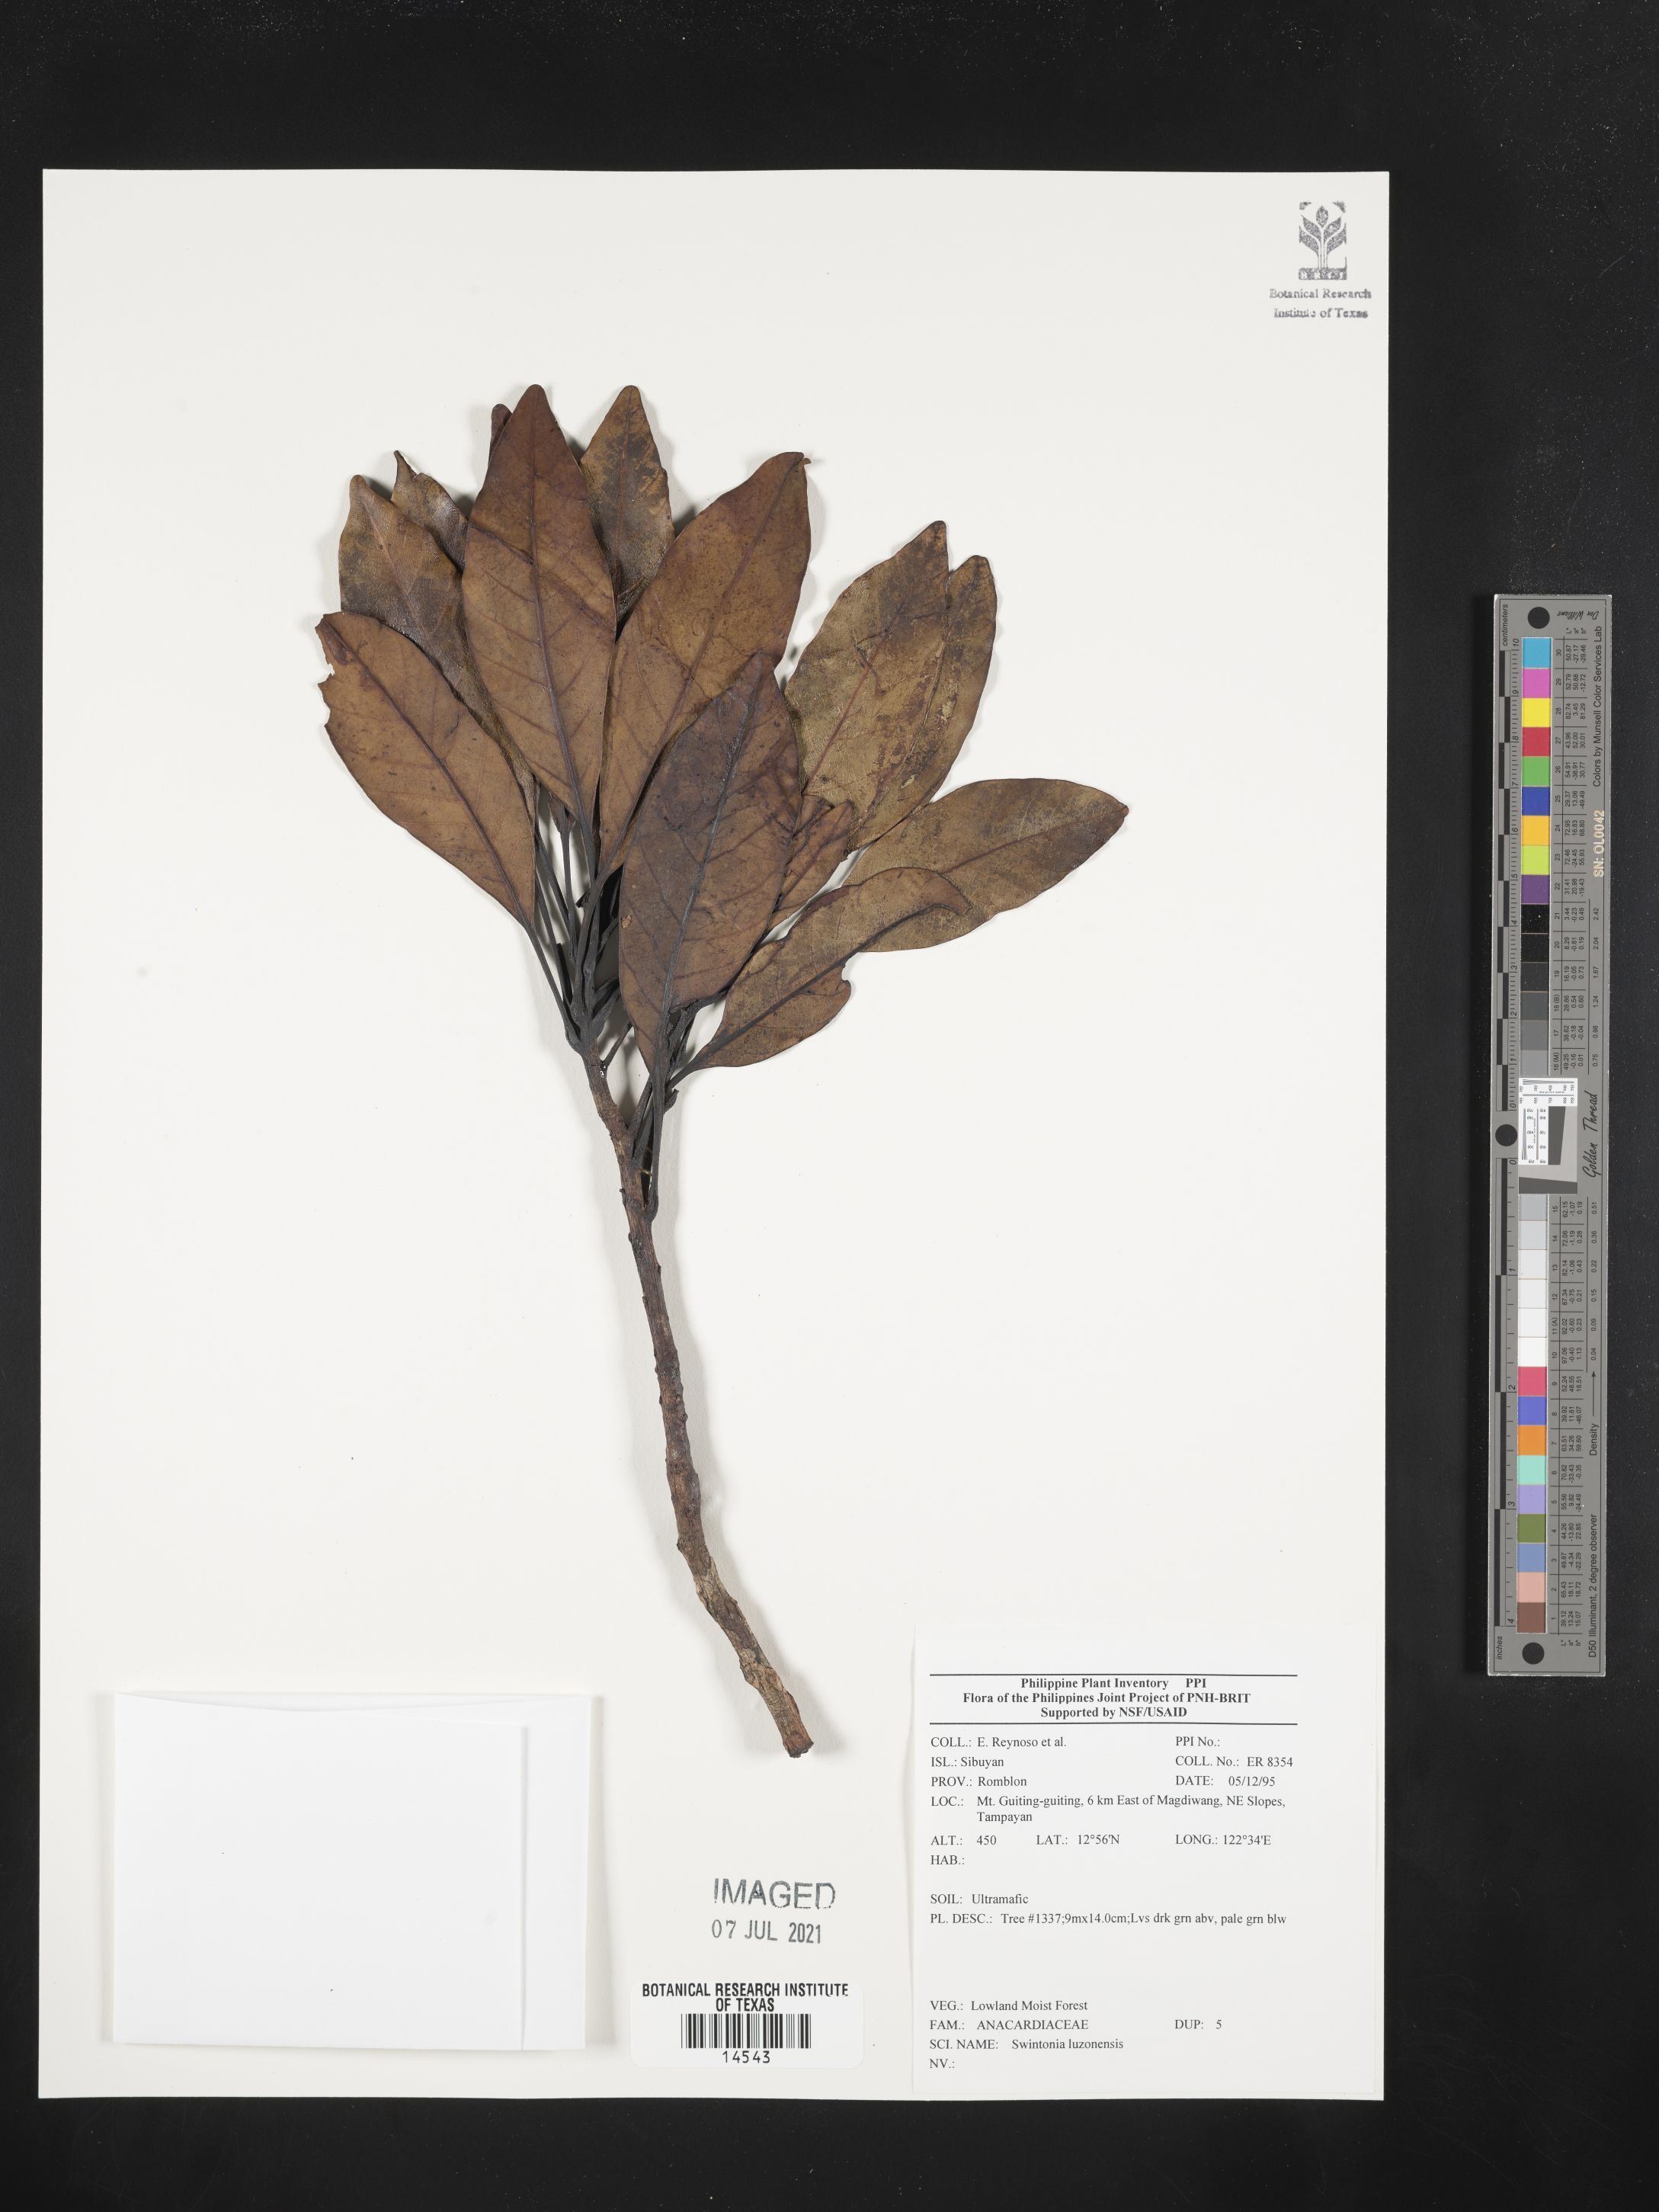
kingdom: Plantae
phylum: Tracheophyta
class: Magnoliopsida
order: Sapindales
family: Anacardiaceae
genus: Swintonia
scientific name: Swintonia acuta
